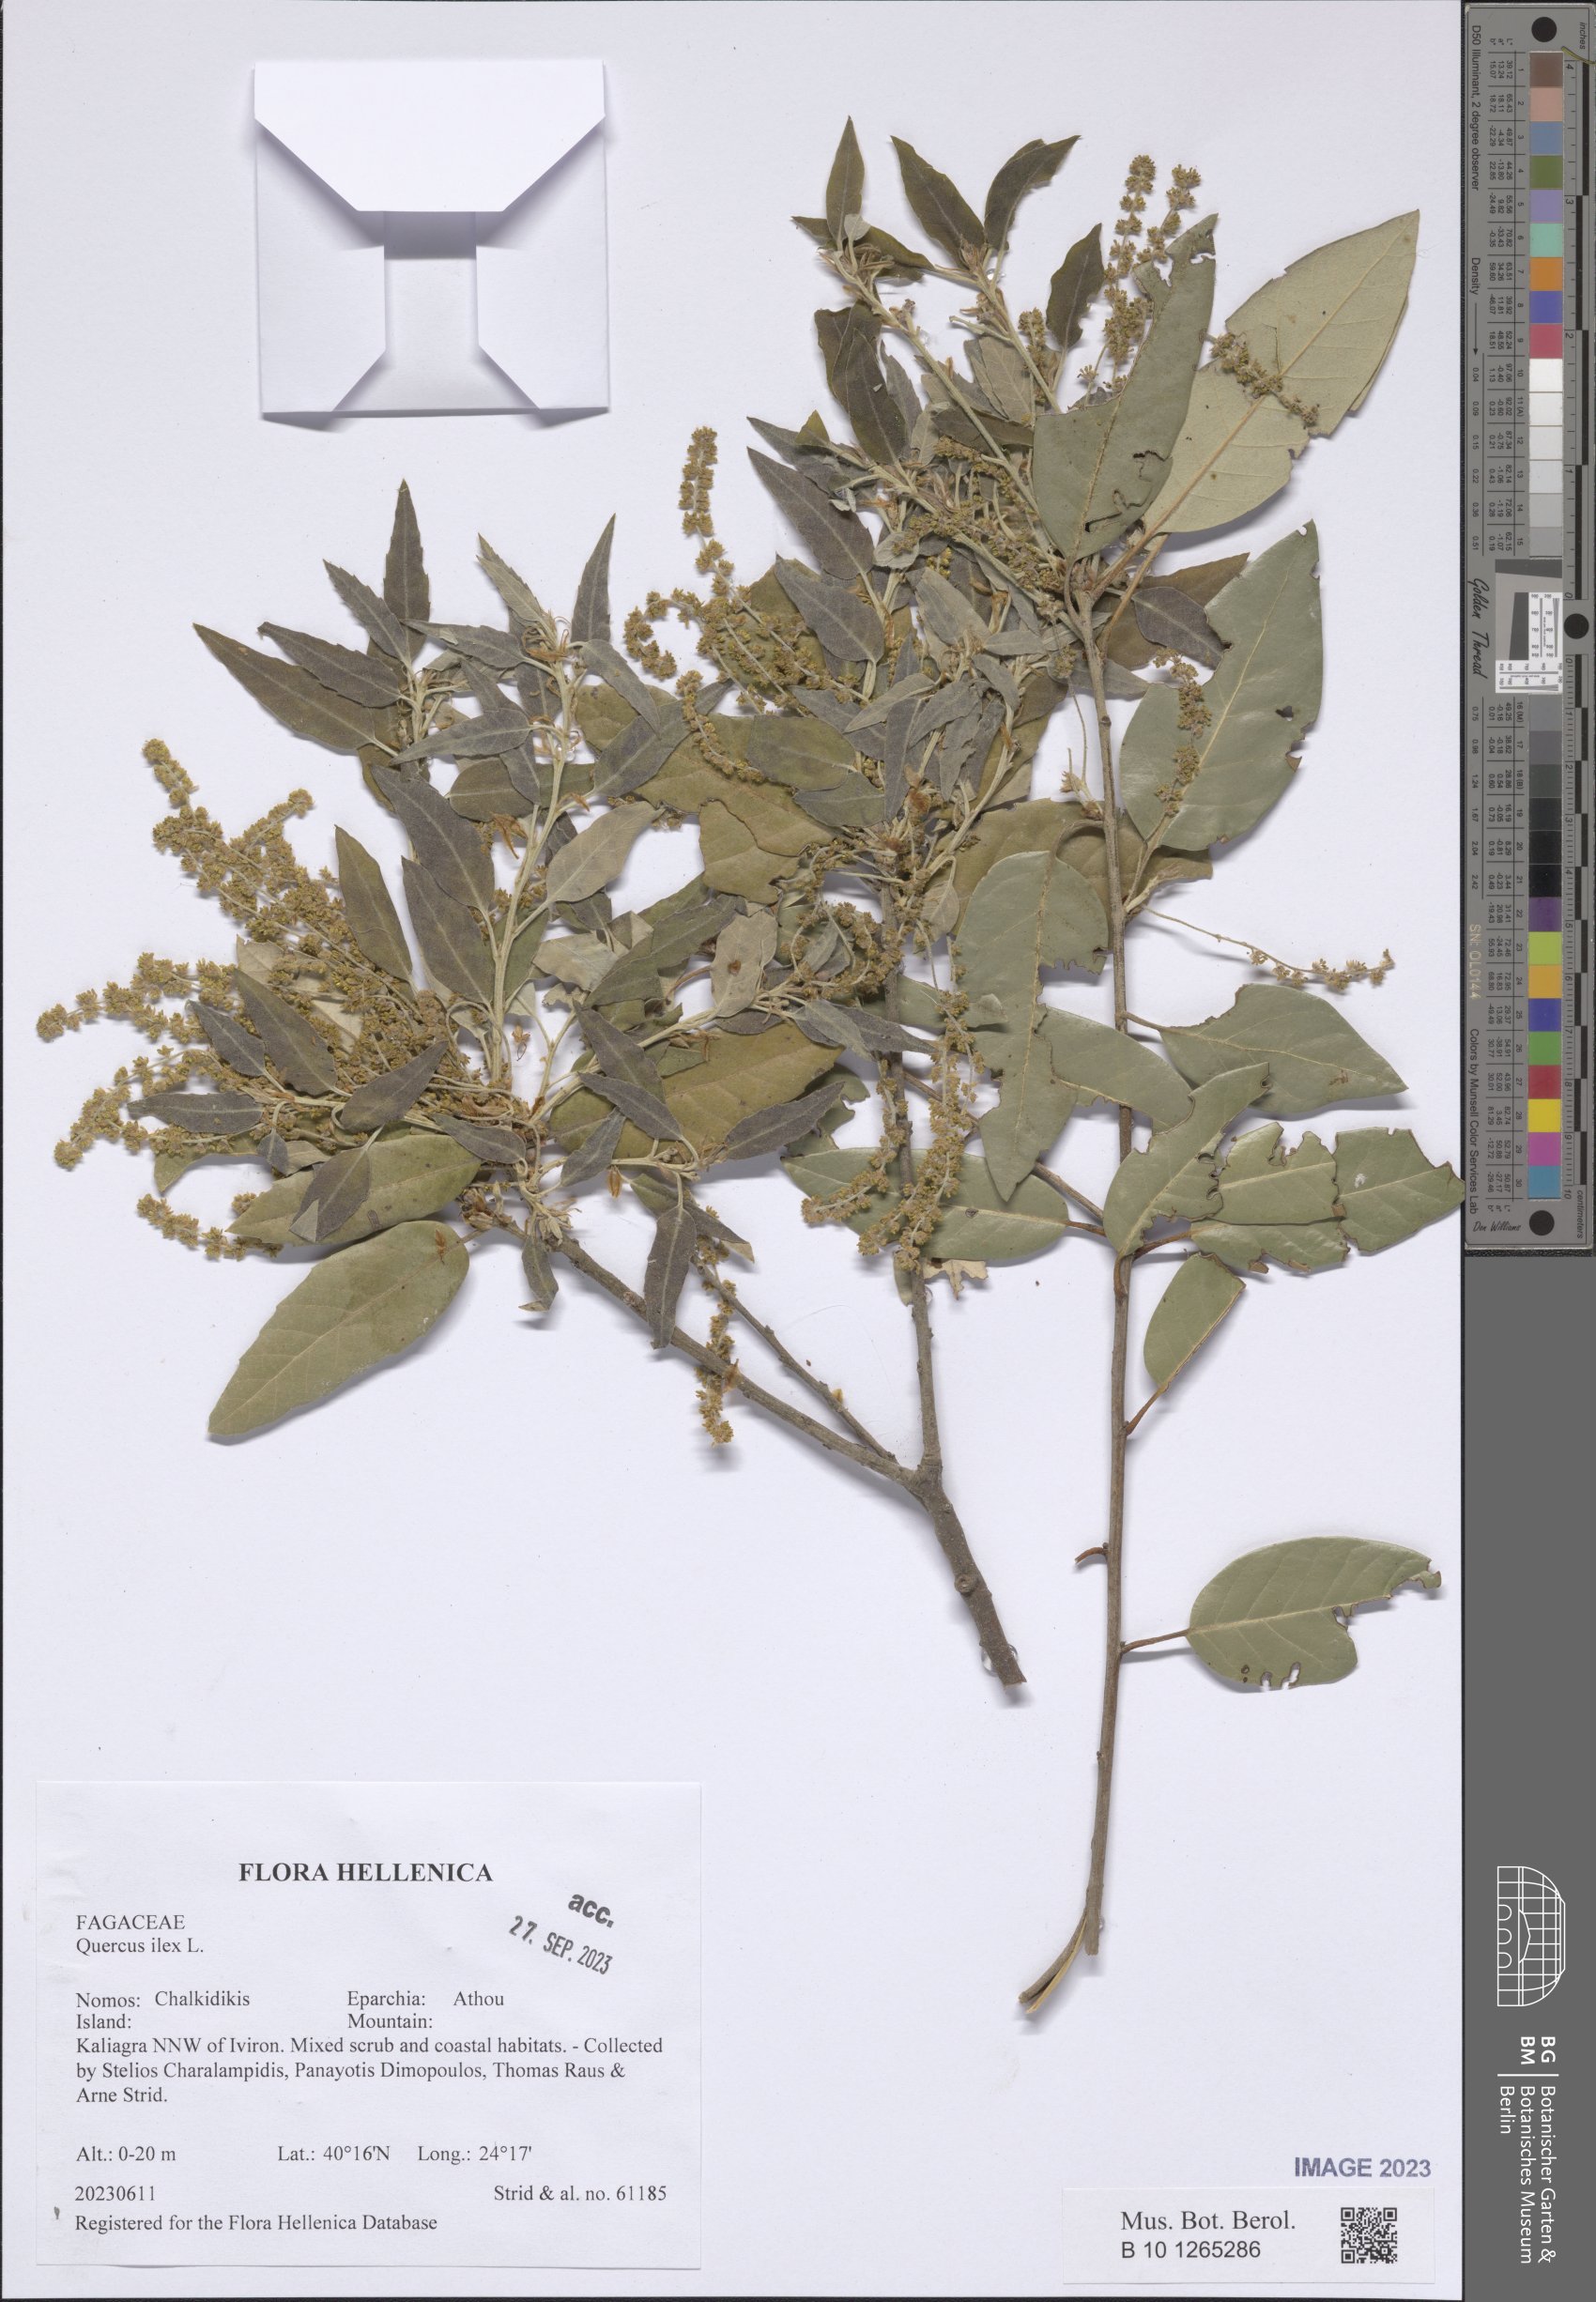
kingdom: Plantae
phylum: Tracheophyta
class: Magnoliopsida
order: Fagales
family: Fagaceae
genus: Quercus
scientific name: Quercus ilex
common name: Evergreen oak
